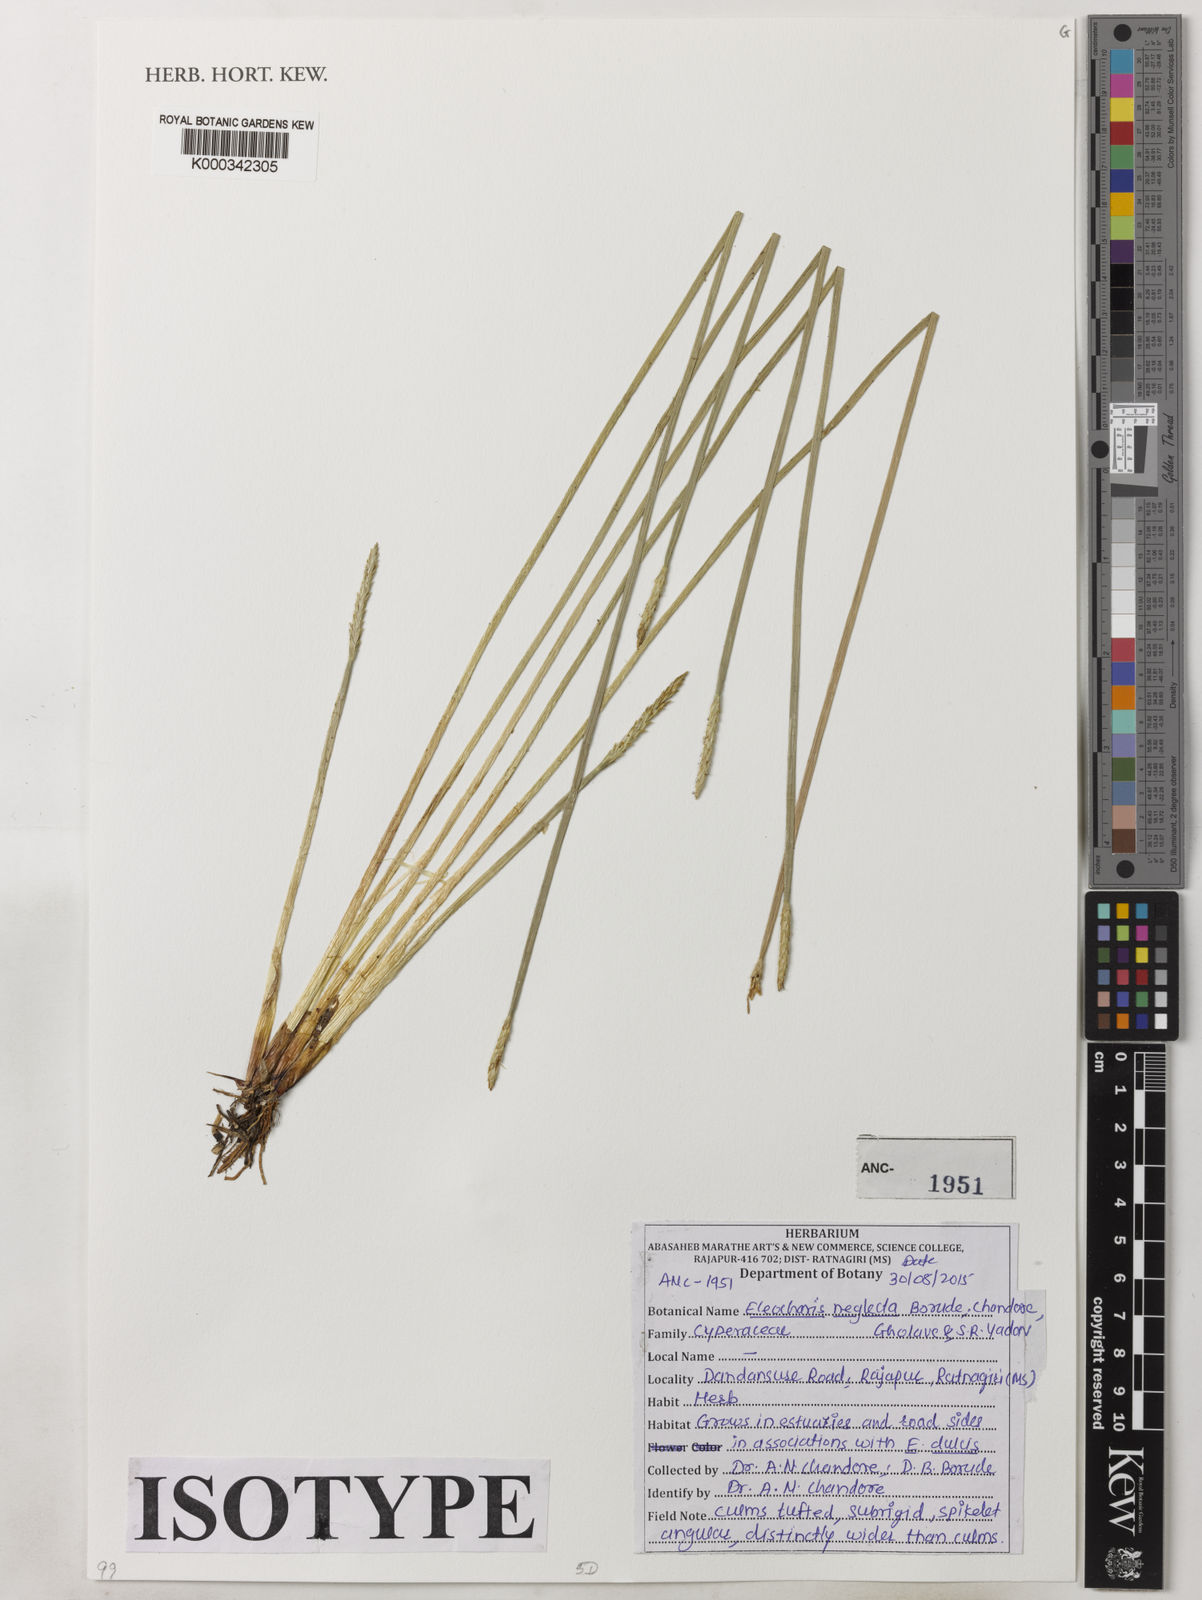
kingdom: Plantae
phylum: Tracheophyta
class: Liliopsida
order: Poales
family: Cyperaceae
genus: Eleocharis
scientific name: Eleocharis
